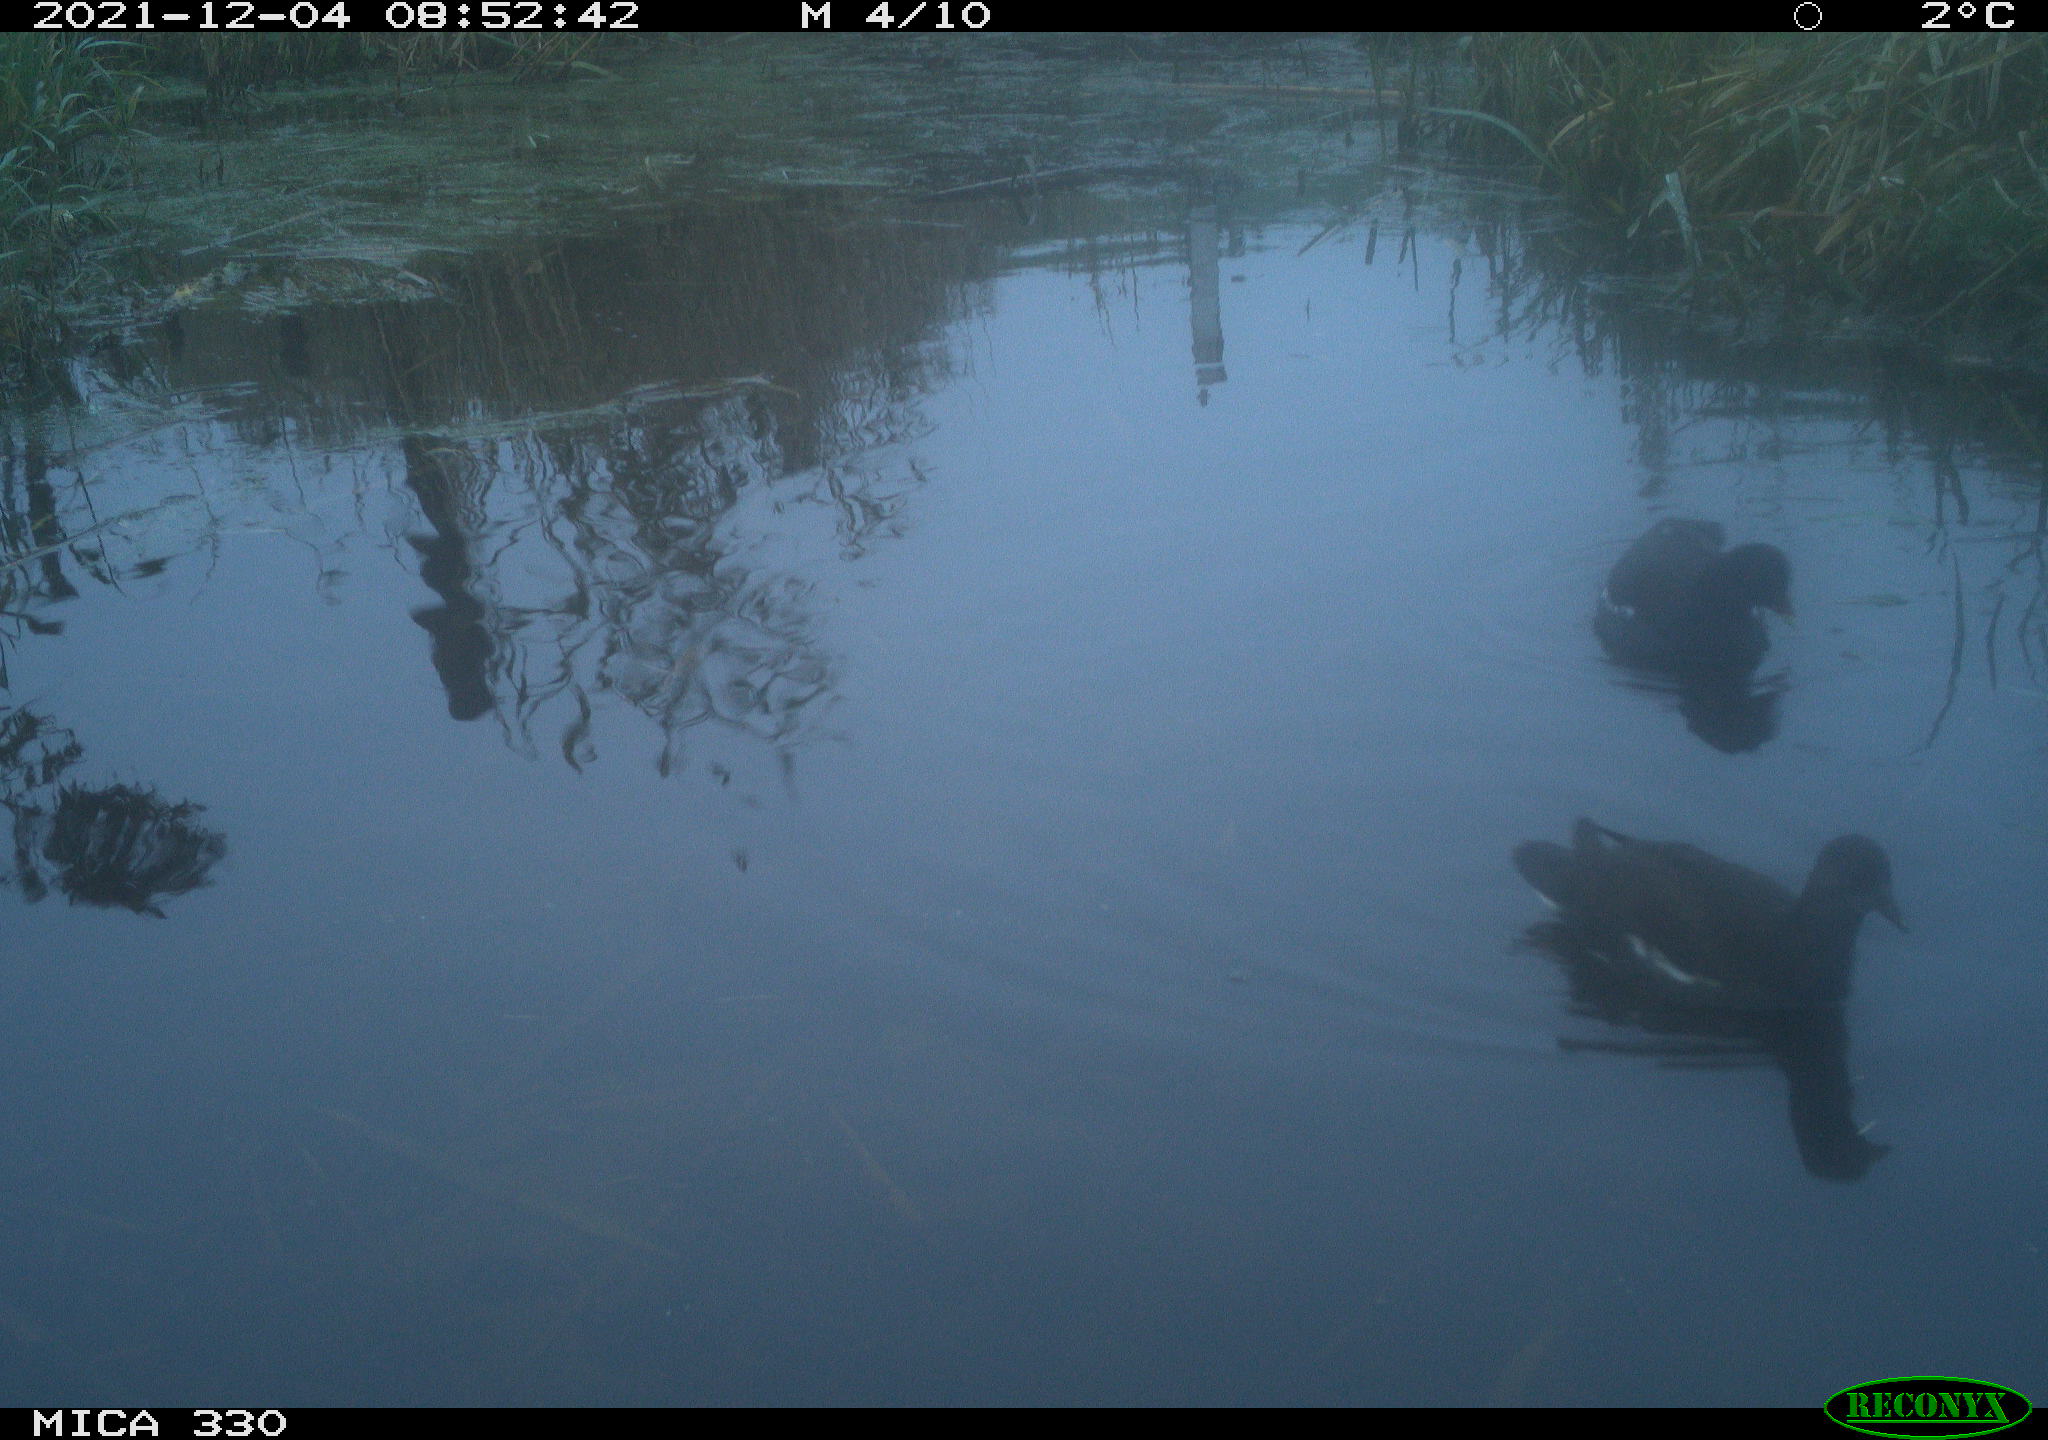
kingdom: Animalia
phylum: Chordata
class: Aves
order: Gruiformes
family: Rallidae
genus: Gallinula
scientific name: Gallinula chloropus
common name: Common moorhen
